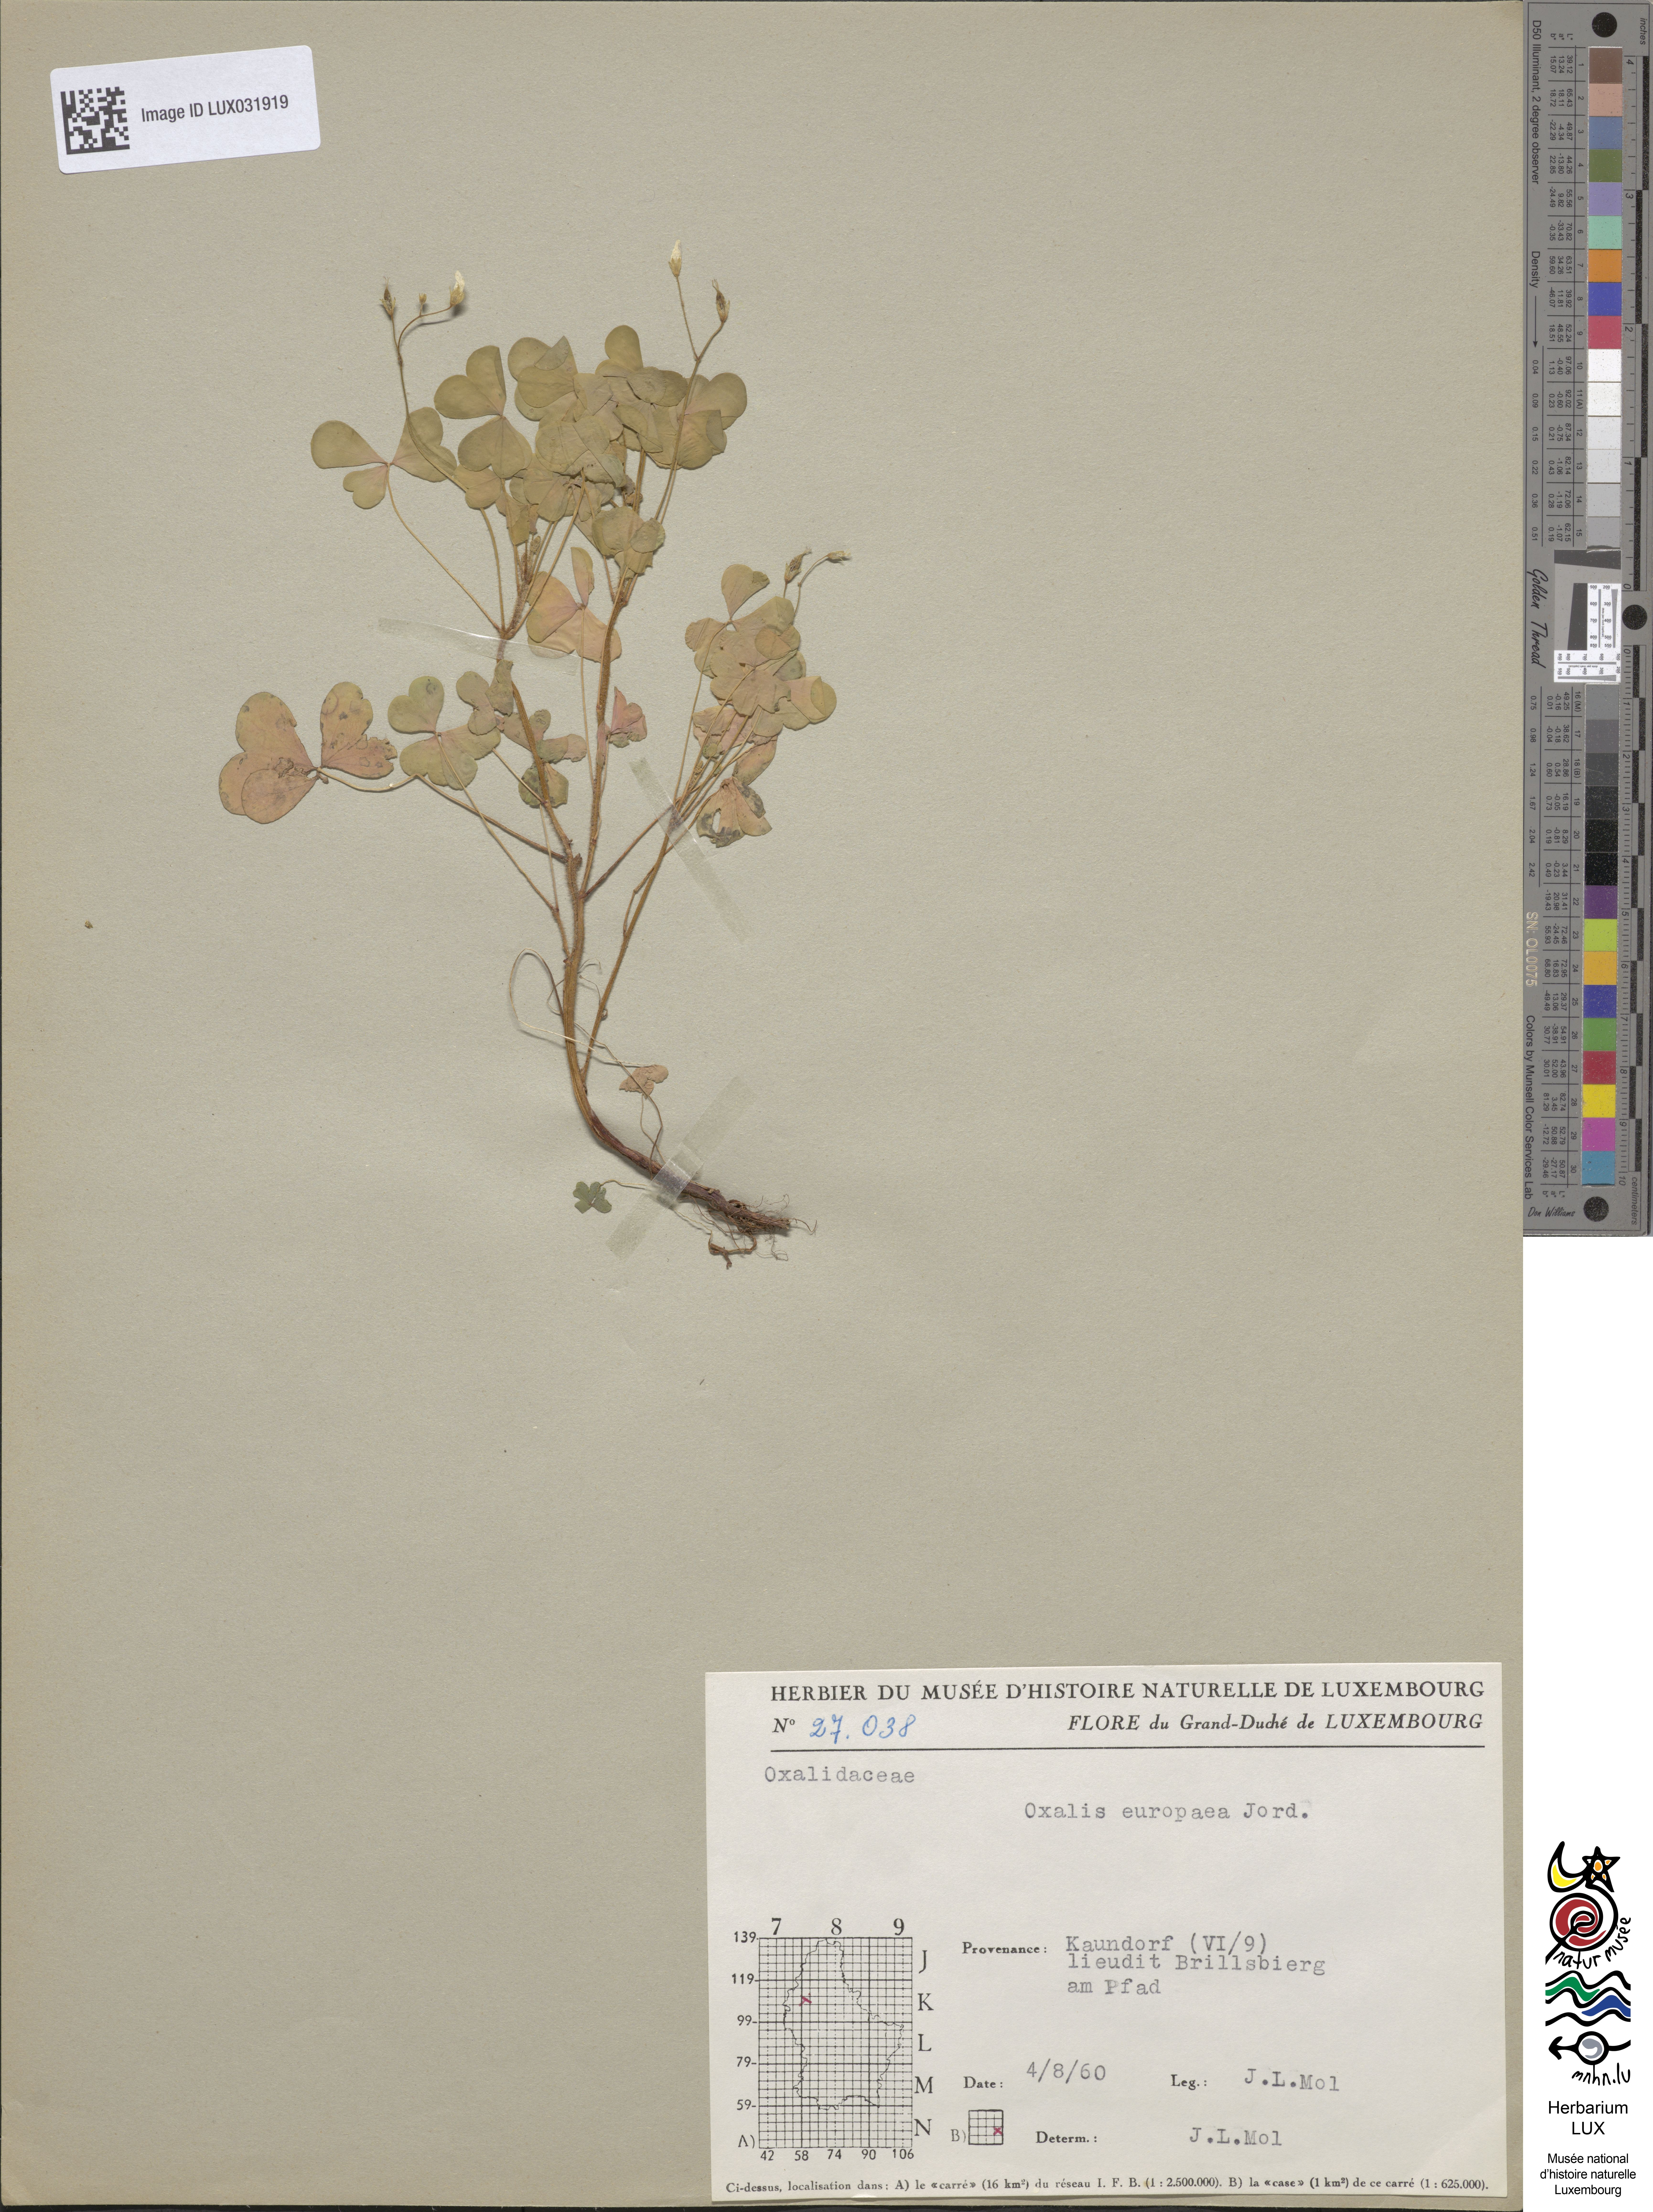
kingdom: Plantae
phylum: Tracheophyta
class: Magnoliopsida
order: Oxalidales
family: Oxalidaceae
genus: Oxalis
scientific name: Oxalis stricta
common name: Upright yellow-sorrel
